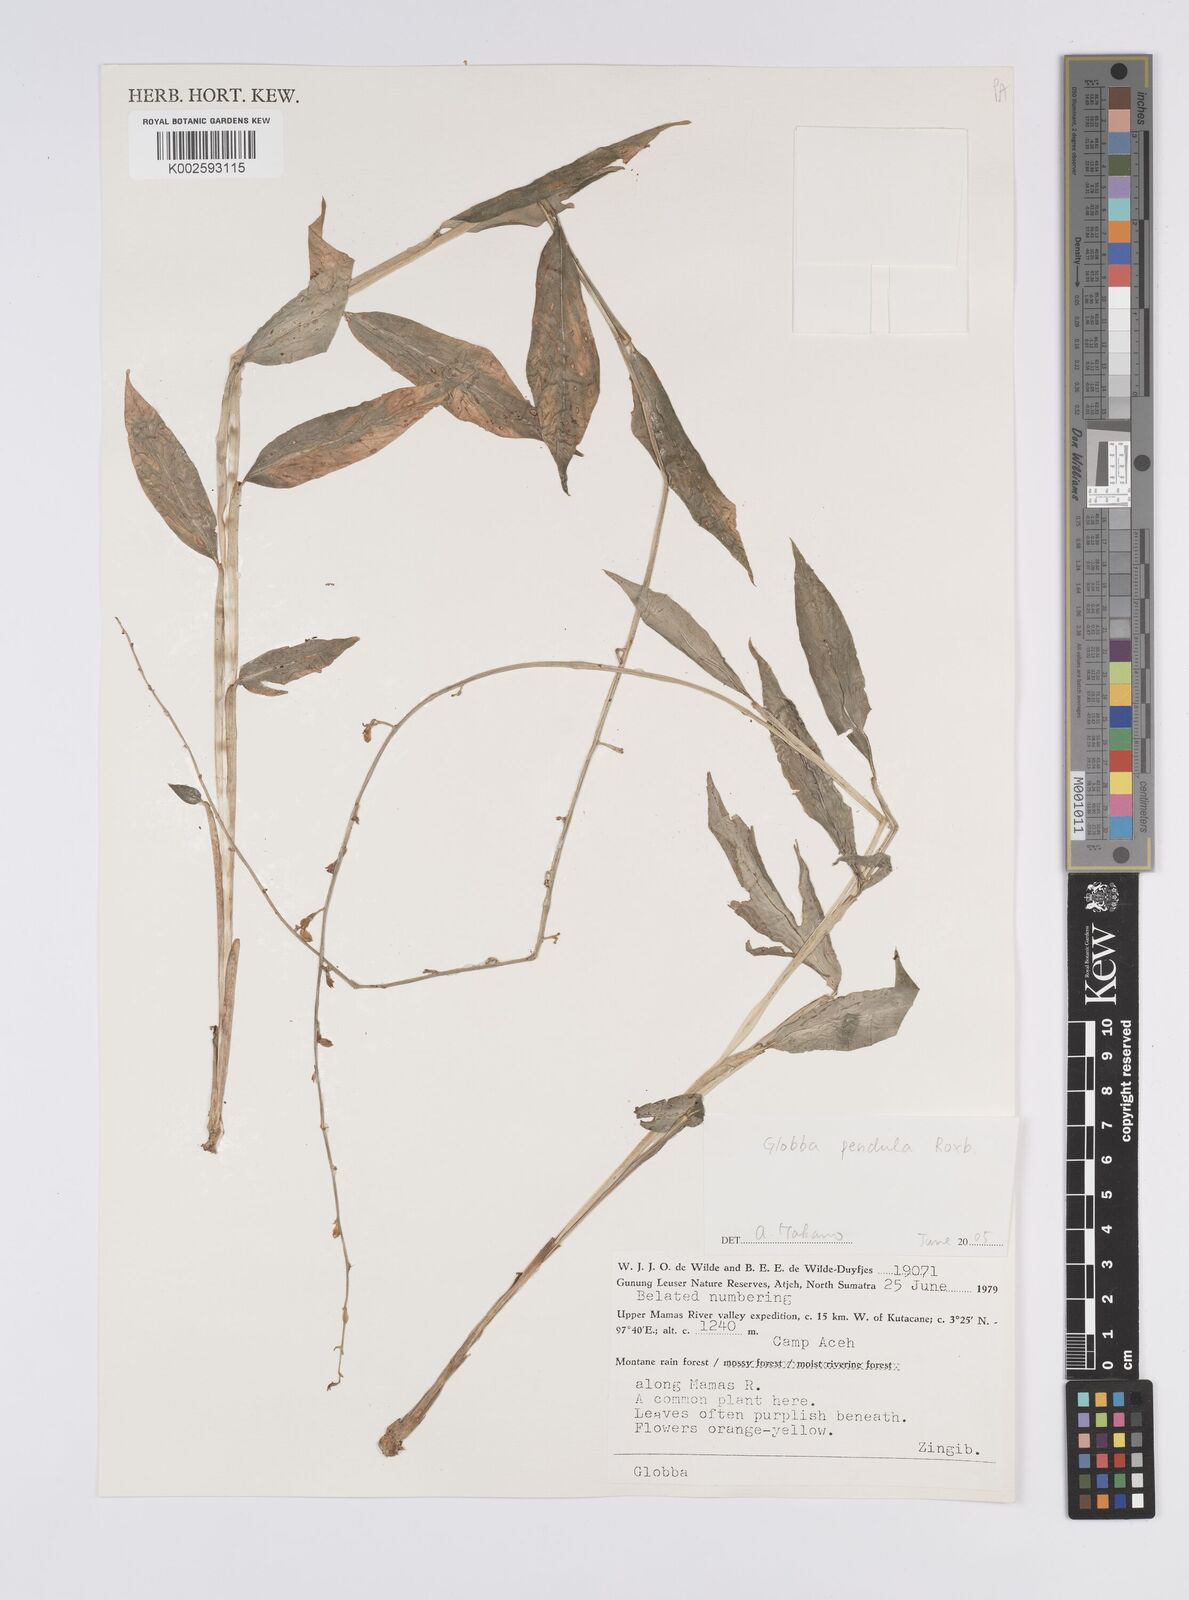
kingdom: Plantae
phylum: Tracheophyta
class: Liliopsida
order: Zingiberales
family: Zingiberaceae
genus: Globba
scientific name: Globba pendula
